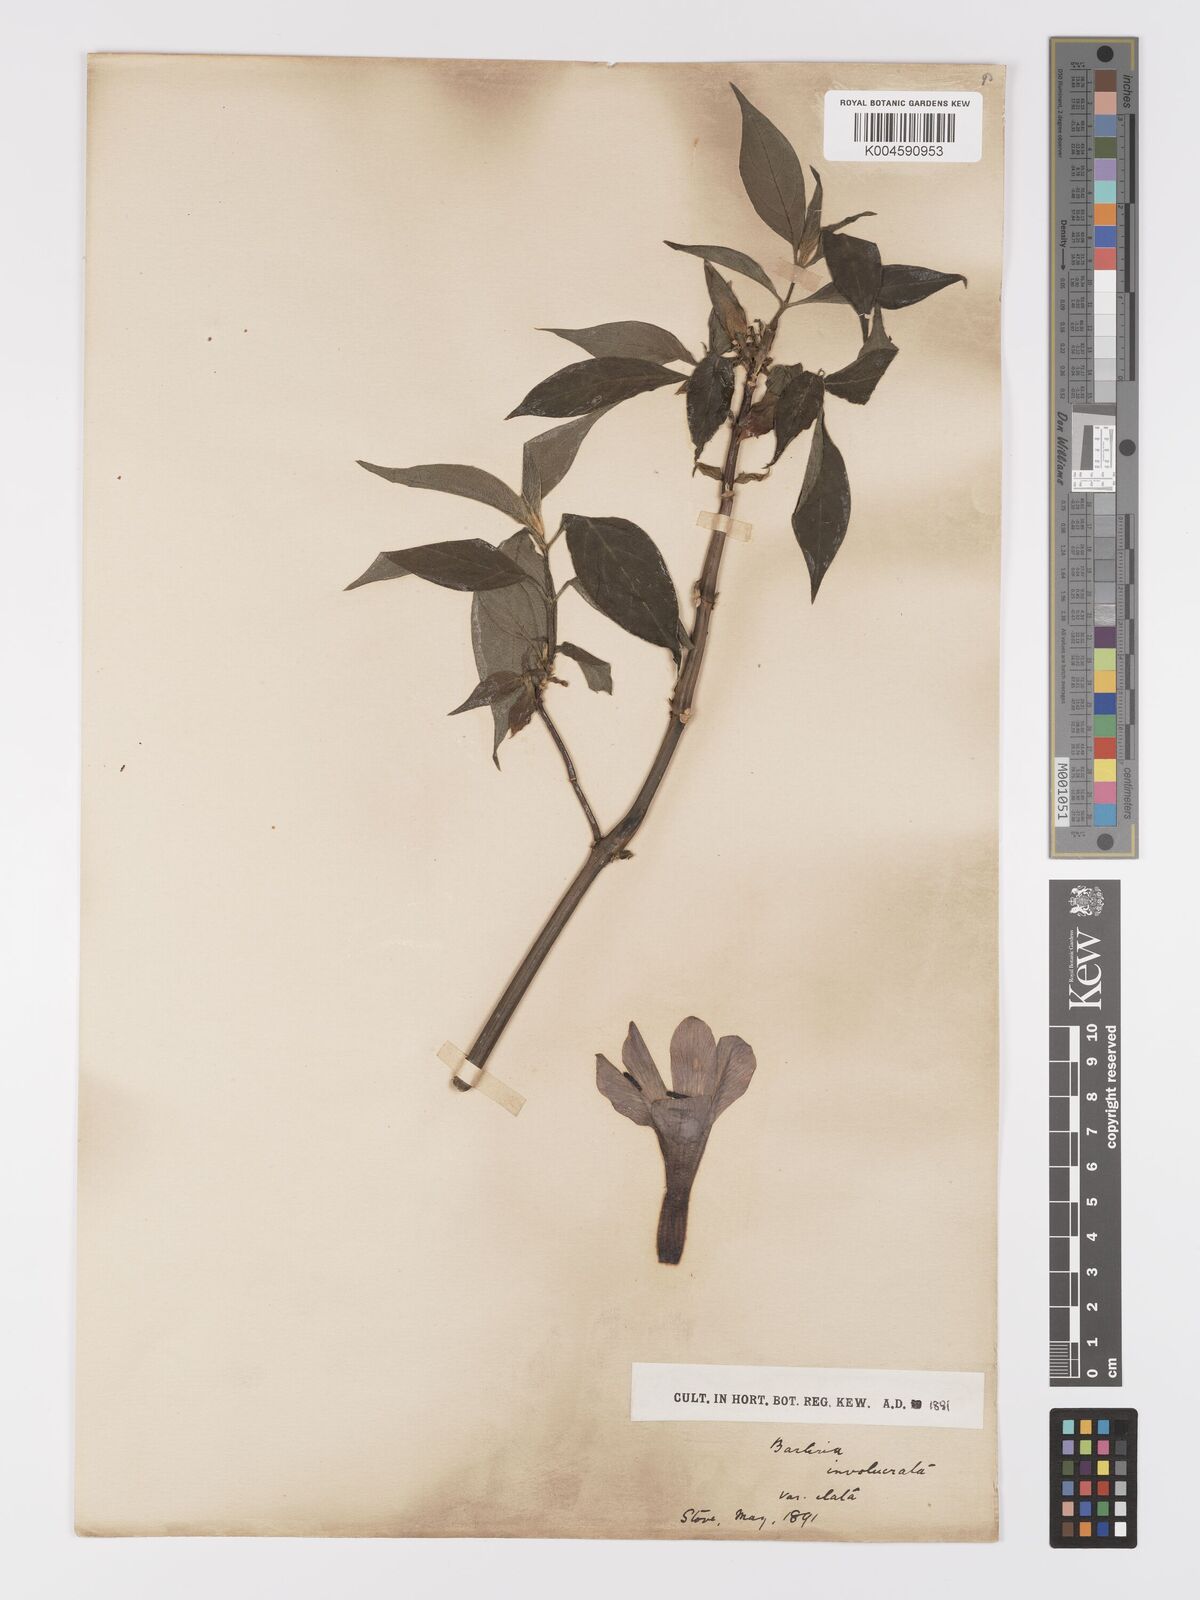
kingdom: Plantae
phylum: Tracheophyta
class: Magnoliopsida
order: Lamiales
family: Acanthaceae
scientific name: Acanthaceae
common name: Acanthaceae
